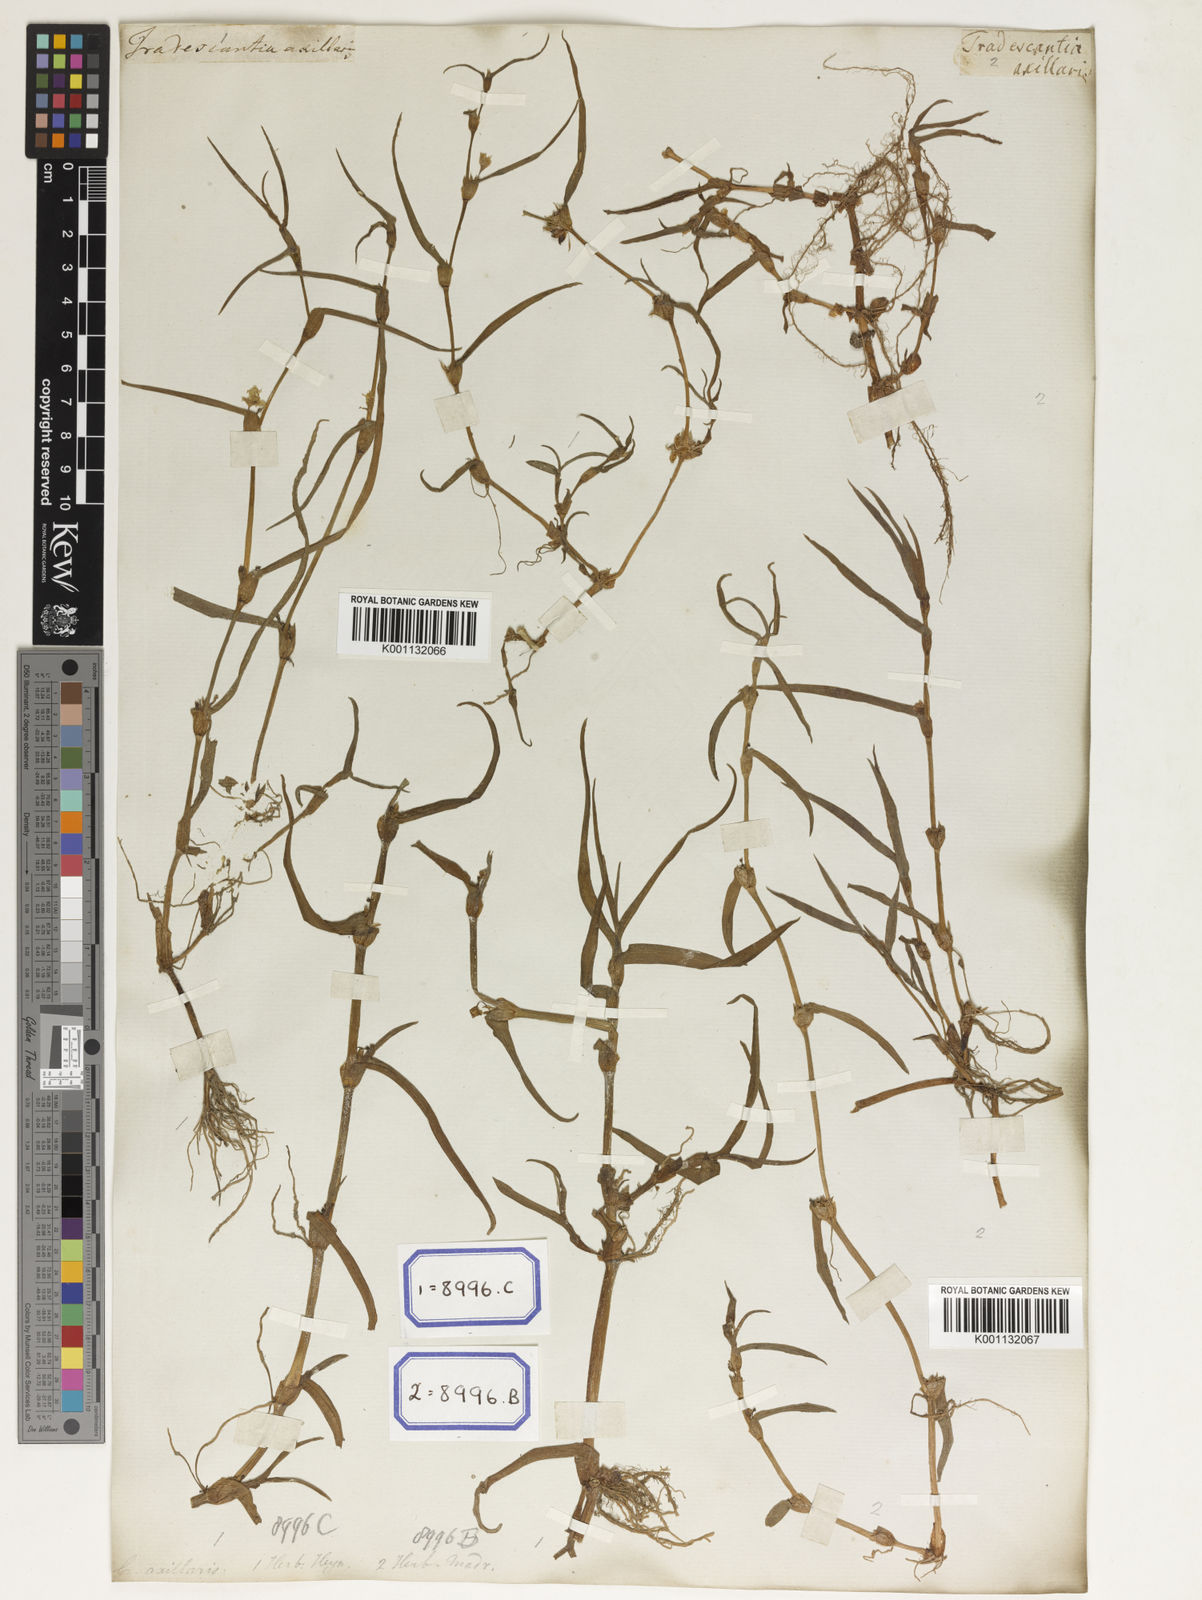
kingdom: Plantae
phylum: Tracheophyta
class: Liliopsida
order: Commelinales
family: Commelinaceae
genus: Cyanotis
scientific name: Cyanotis
